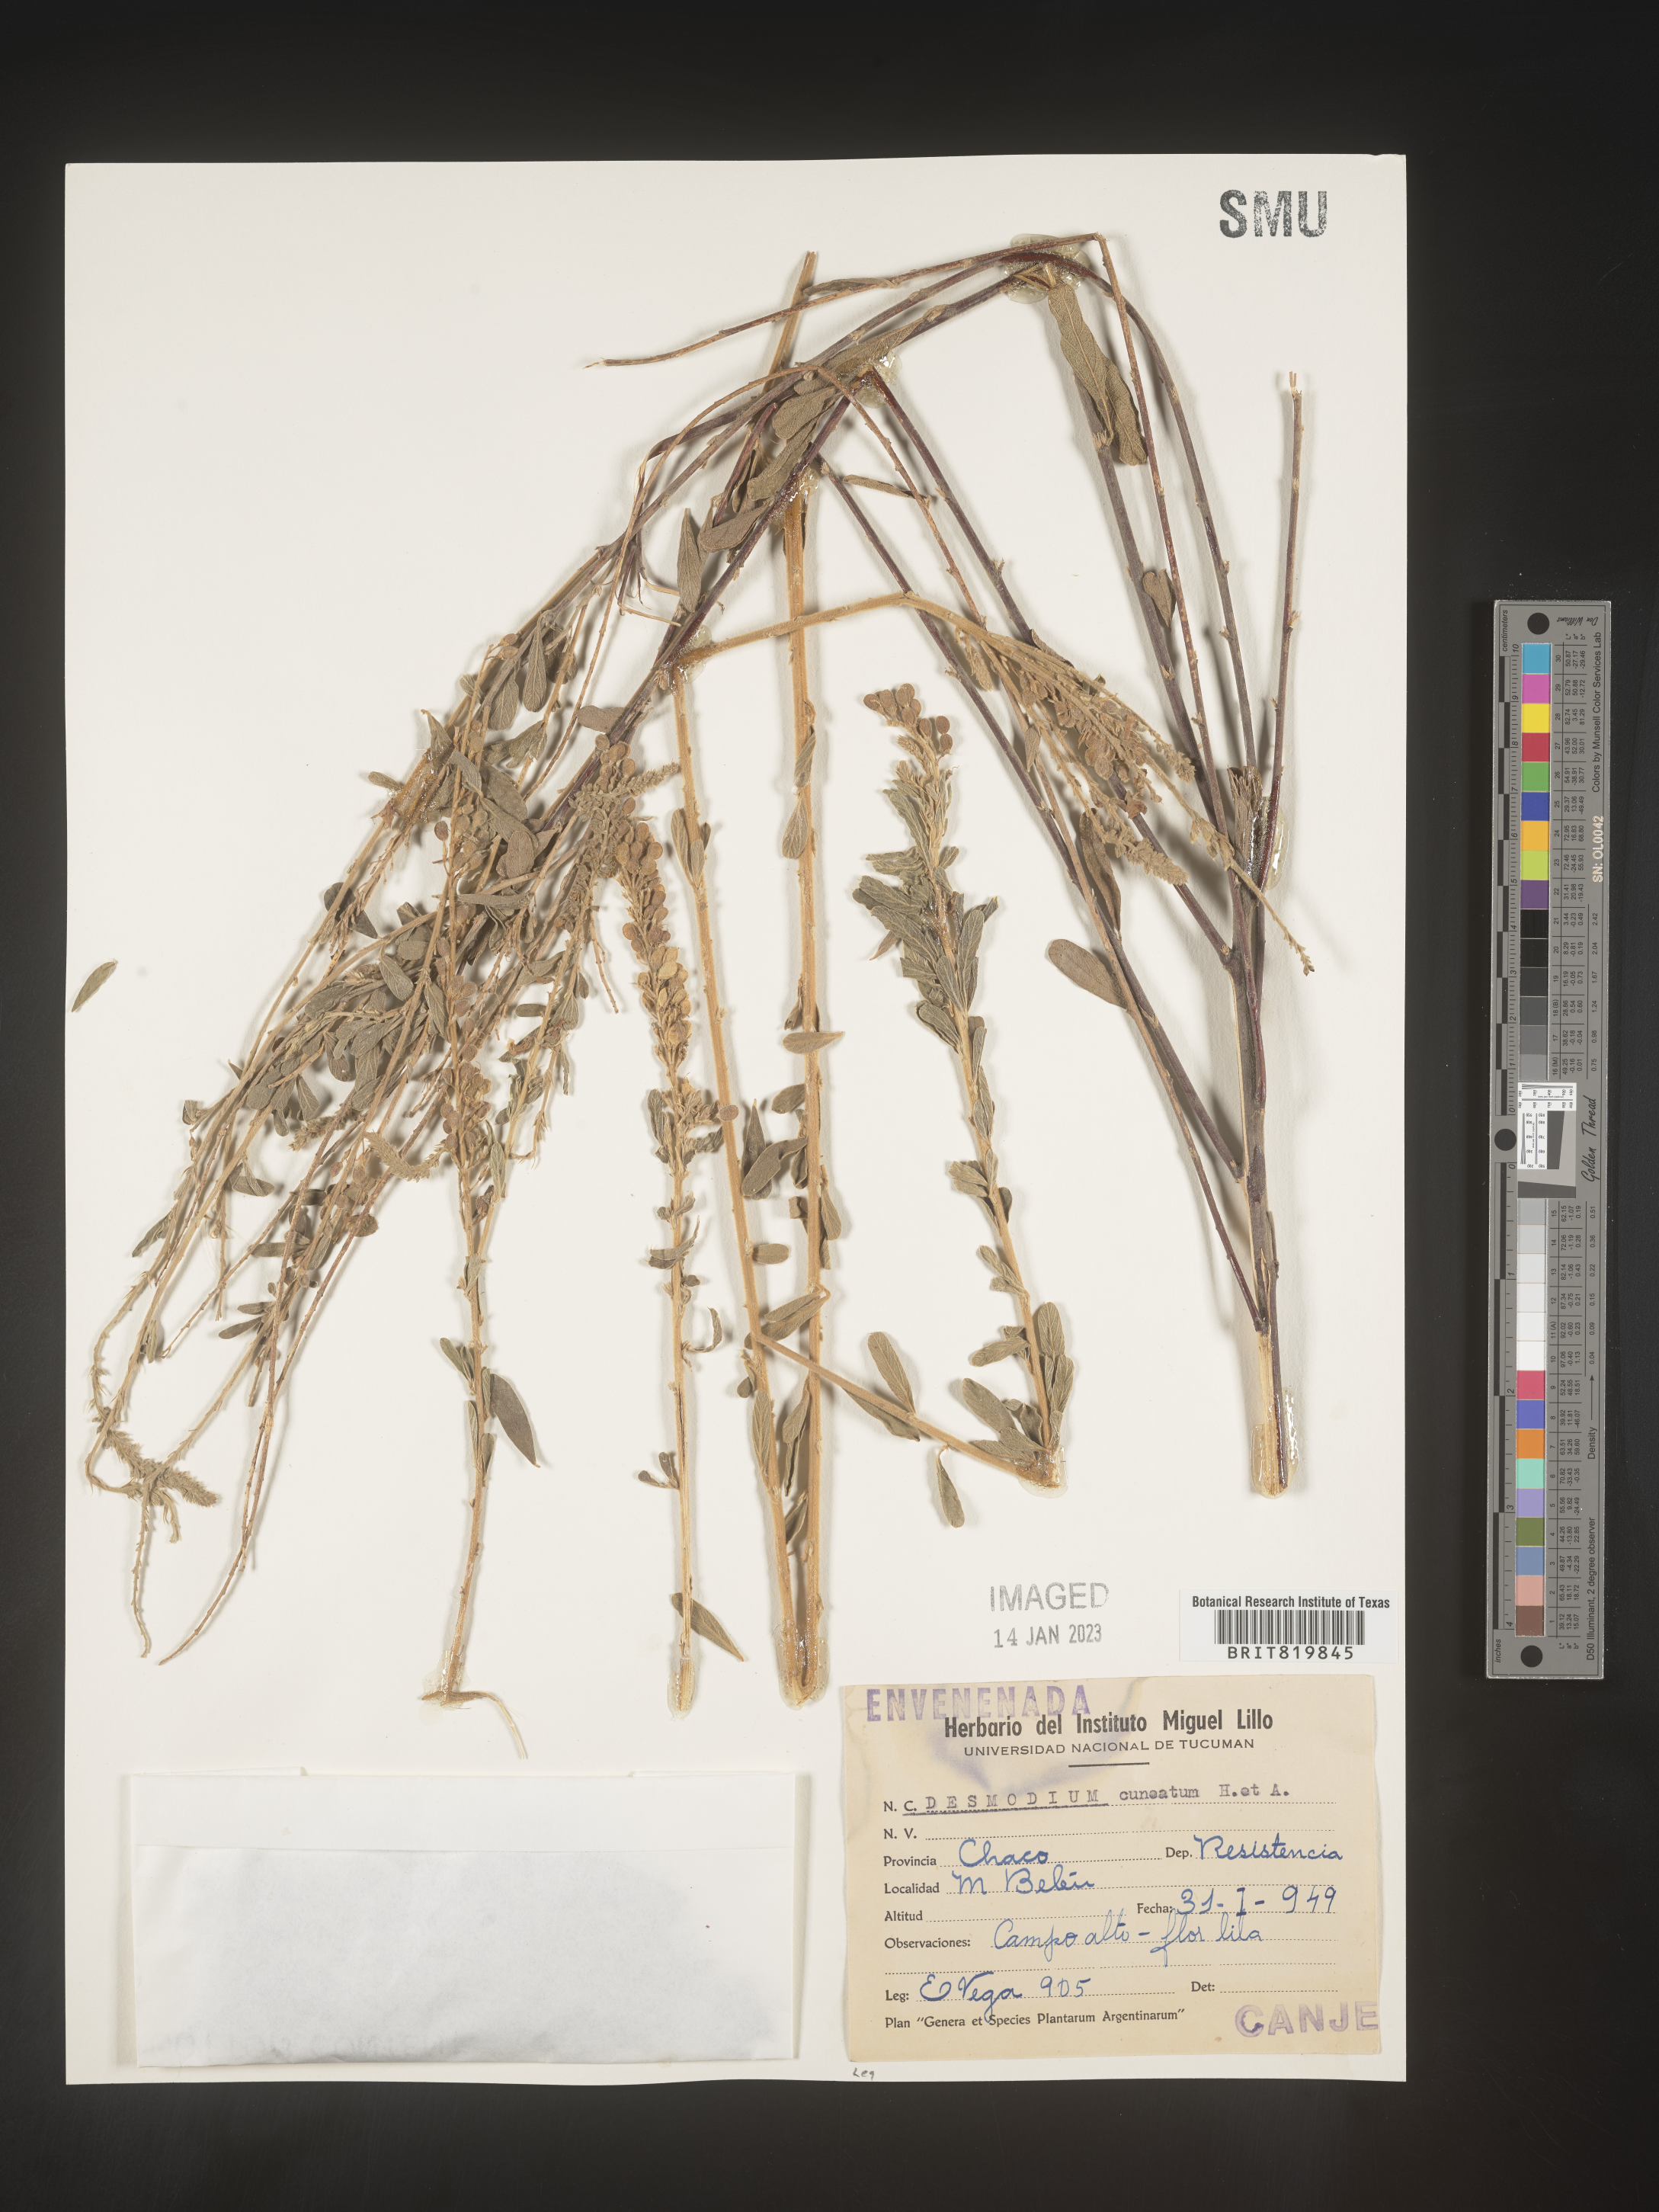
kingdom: Plantae
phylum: Tracheophyta
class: Magnoliopsida
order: Fabales
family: Fabaceae
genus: Desmodium
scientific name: Desmodium
